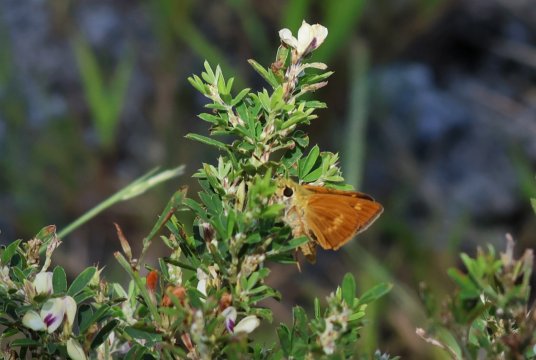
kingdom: Animalia
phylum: Arthropoda
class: Insecta
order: Lepidoptera
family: Hesperiidae
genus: Wallengrenia
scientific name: Wallengrenia otho
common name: Southern Broken-Dash
